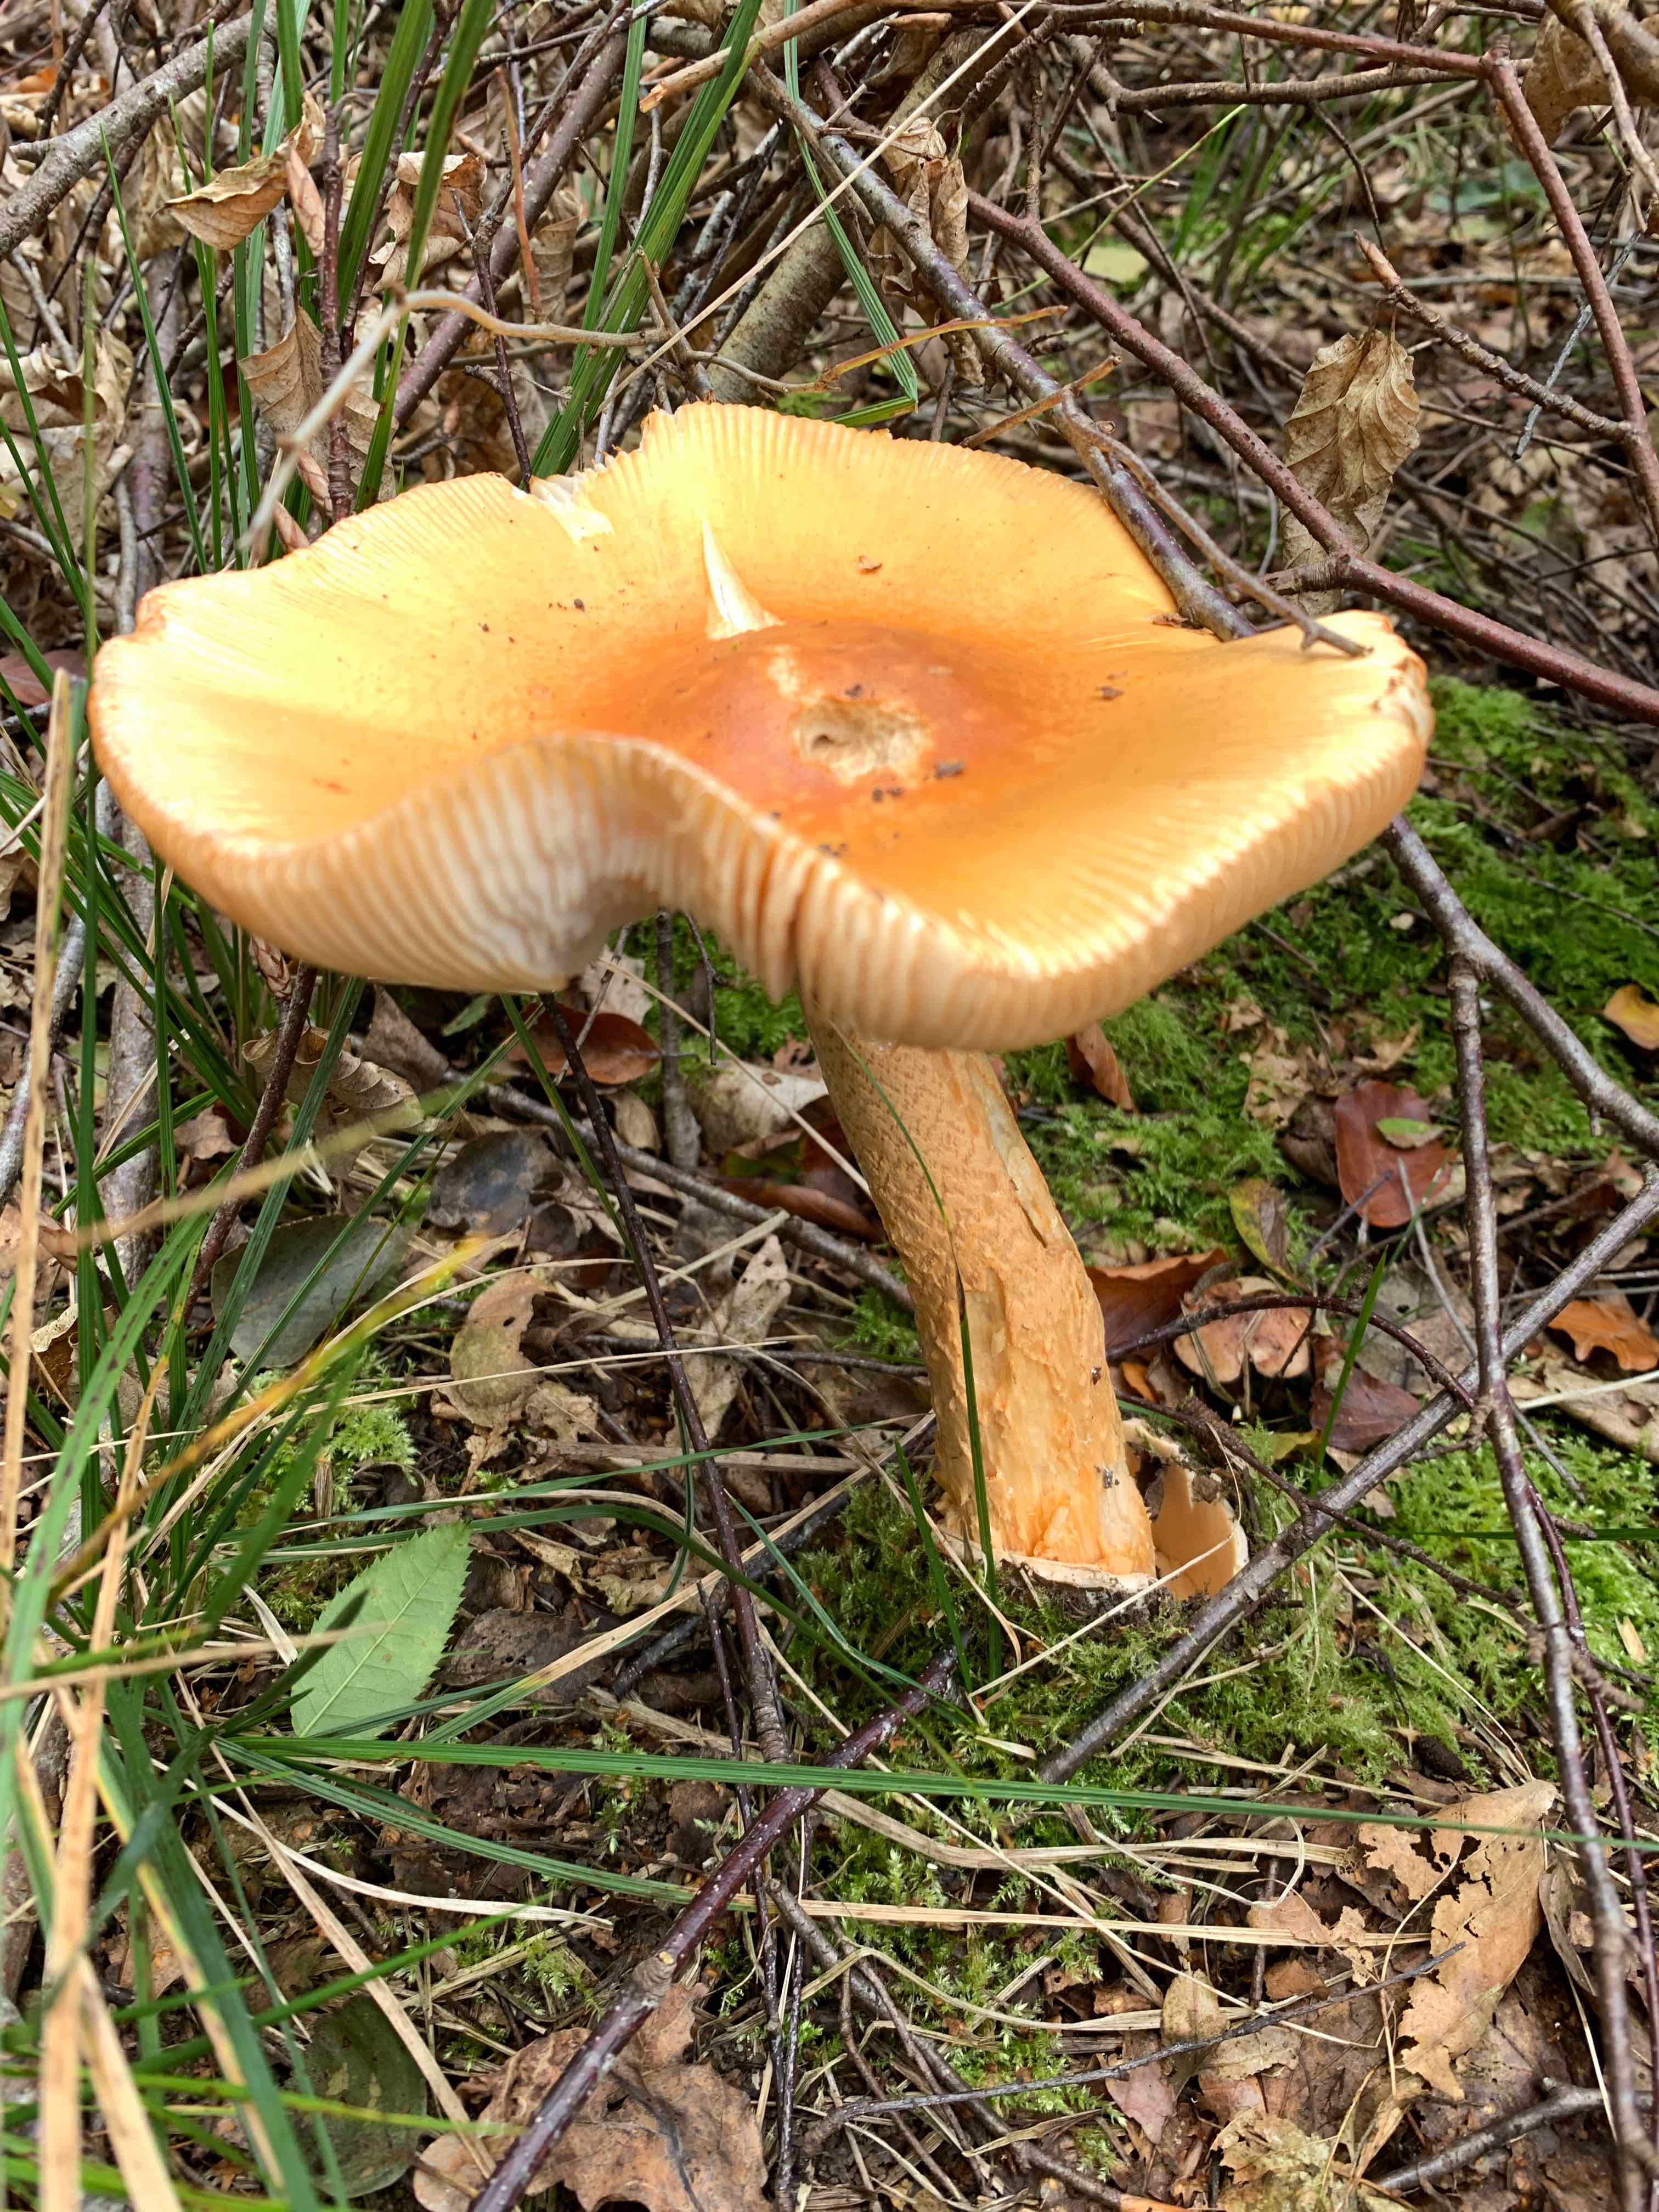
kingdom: Fungi
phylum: Basidiomycota
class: Agaricomycetes
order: Agaricales
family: Amanitaceae
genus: Amanita
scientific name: Amanita crocea
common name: gylden kam-fluesvamp
